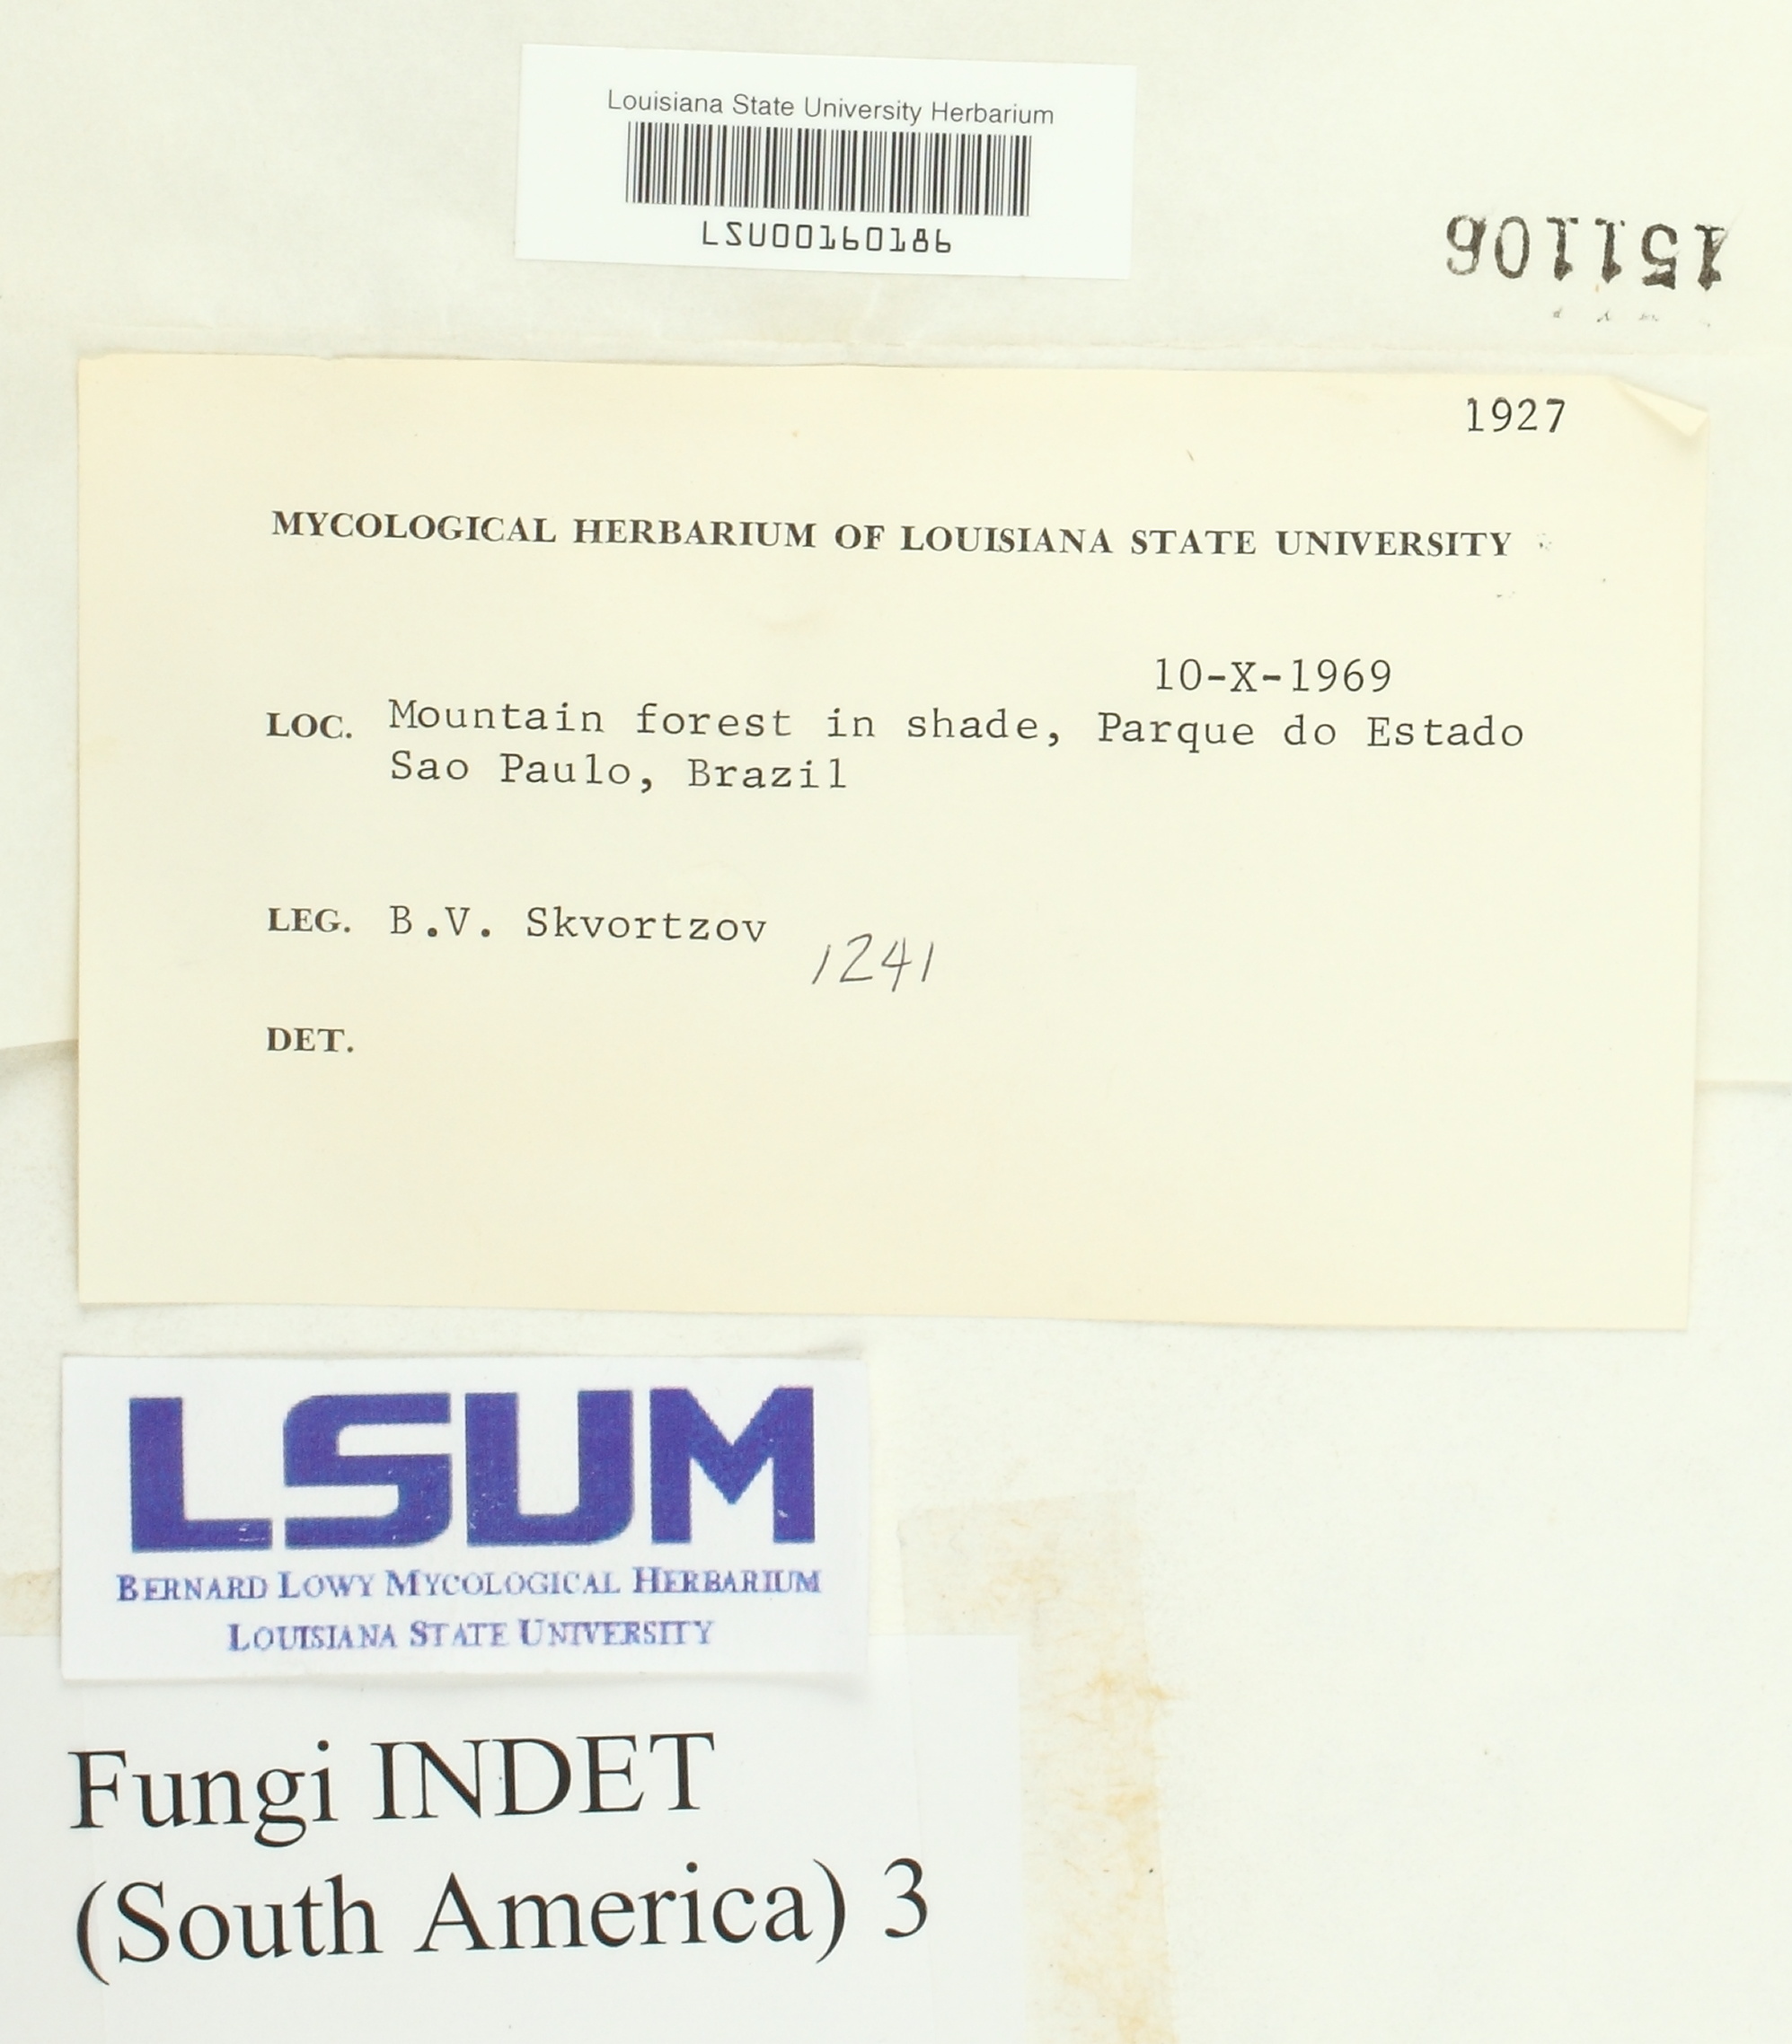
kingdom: Fungi
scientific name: Fungi
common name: Fungi
